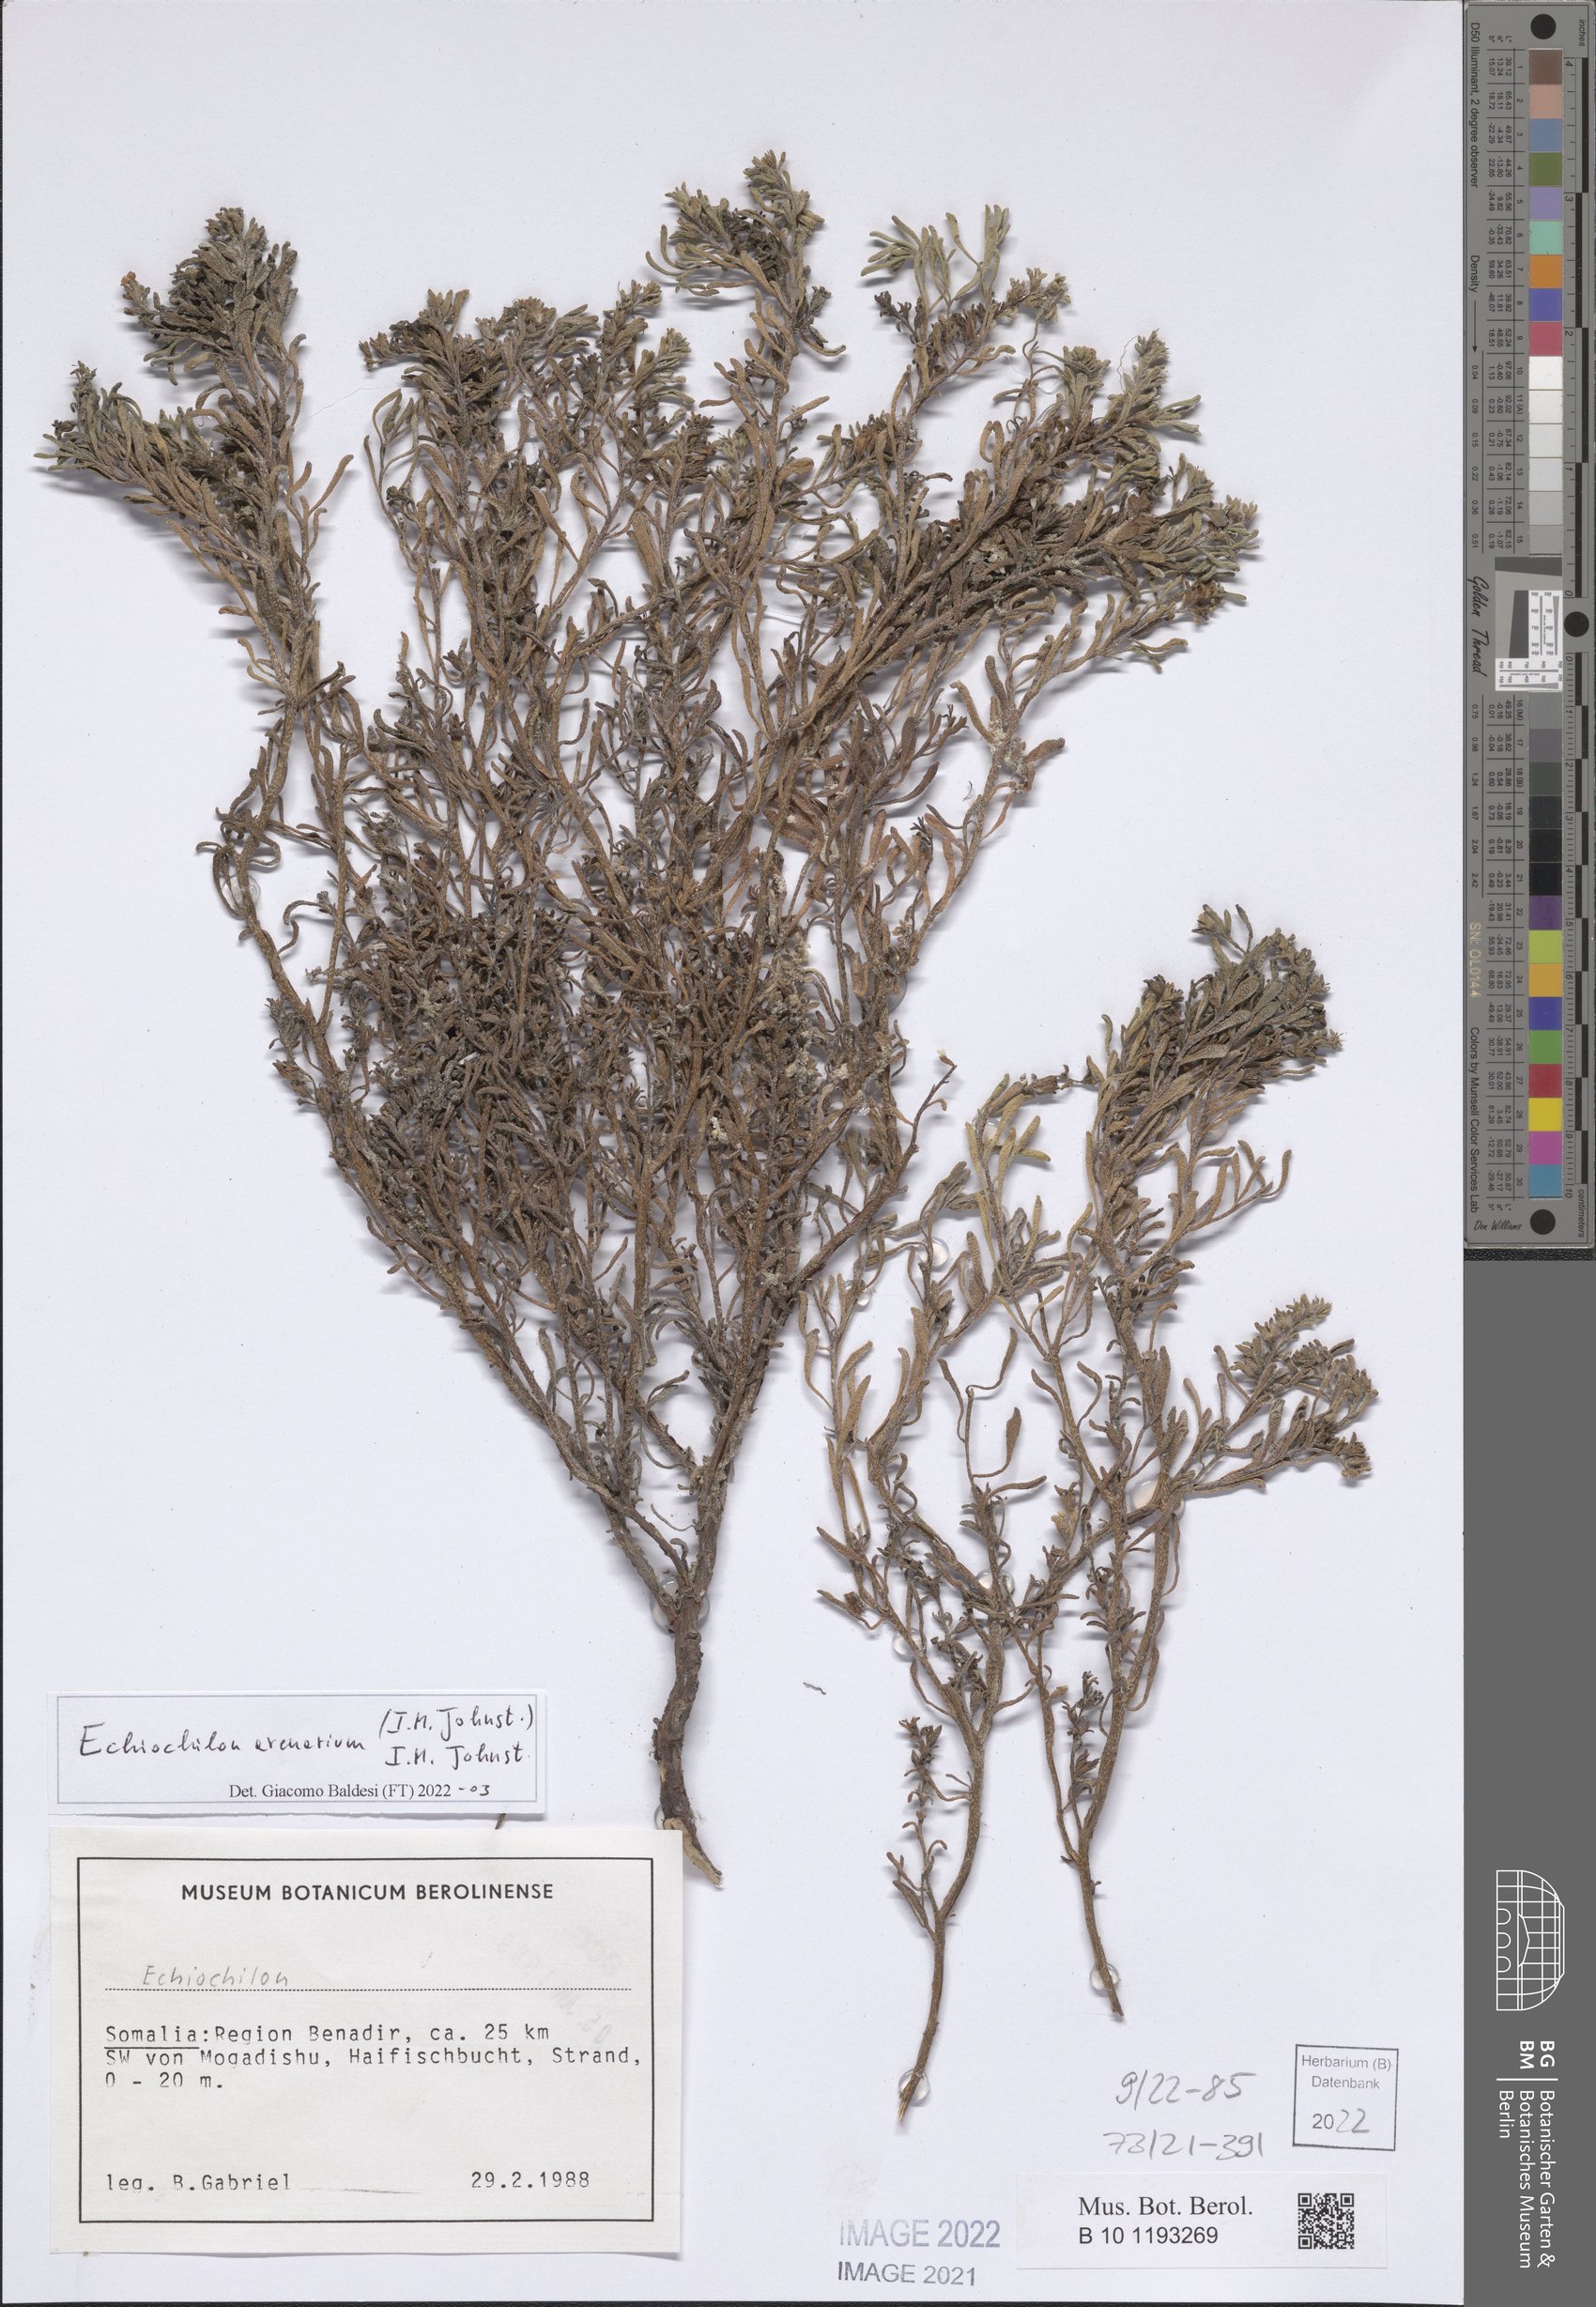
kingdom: Plantae
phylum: Tracheophyta
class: Magnoliopsida
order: Boraginales
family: Boraginaceae
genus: Echiochilon
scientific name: Echiochilon arenarium
